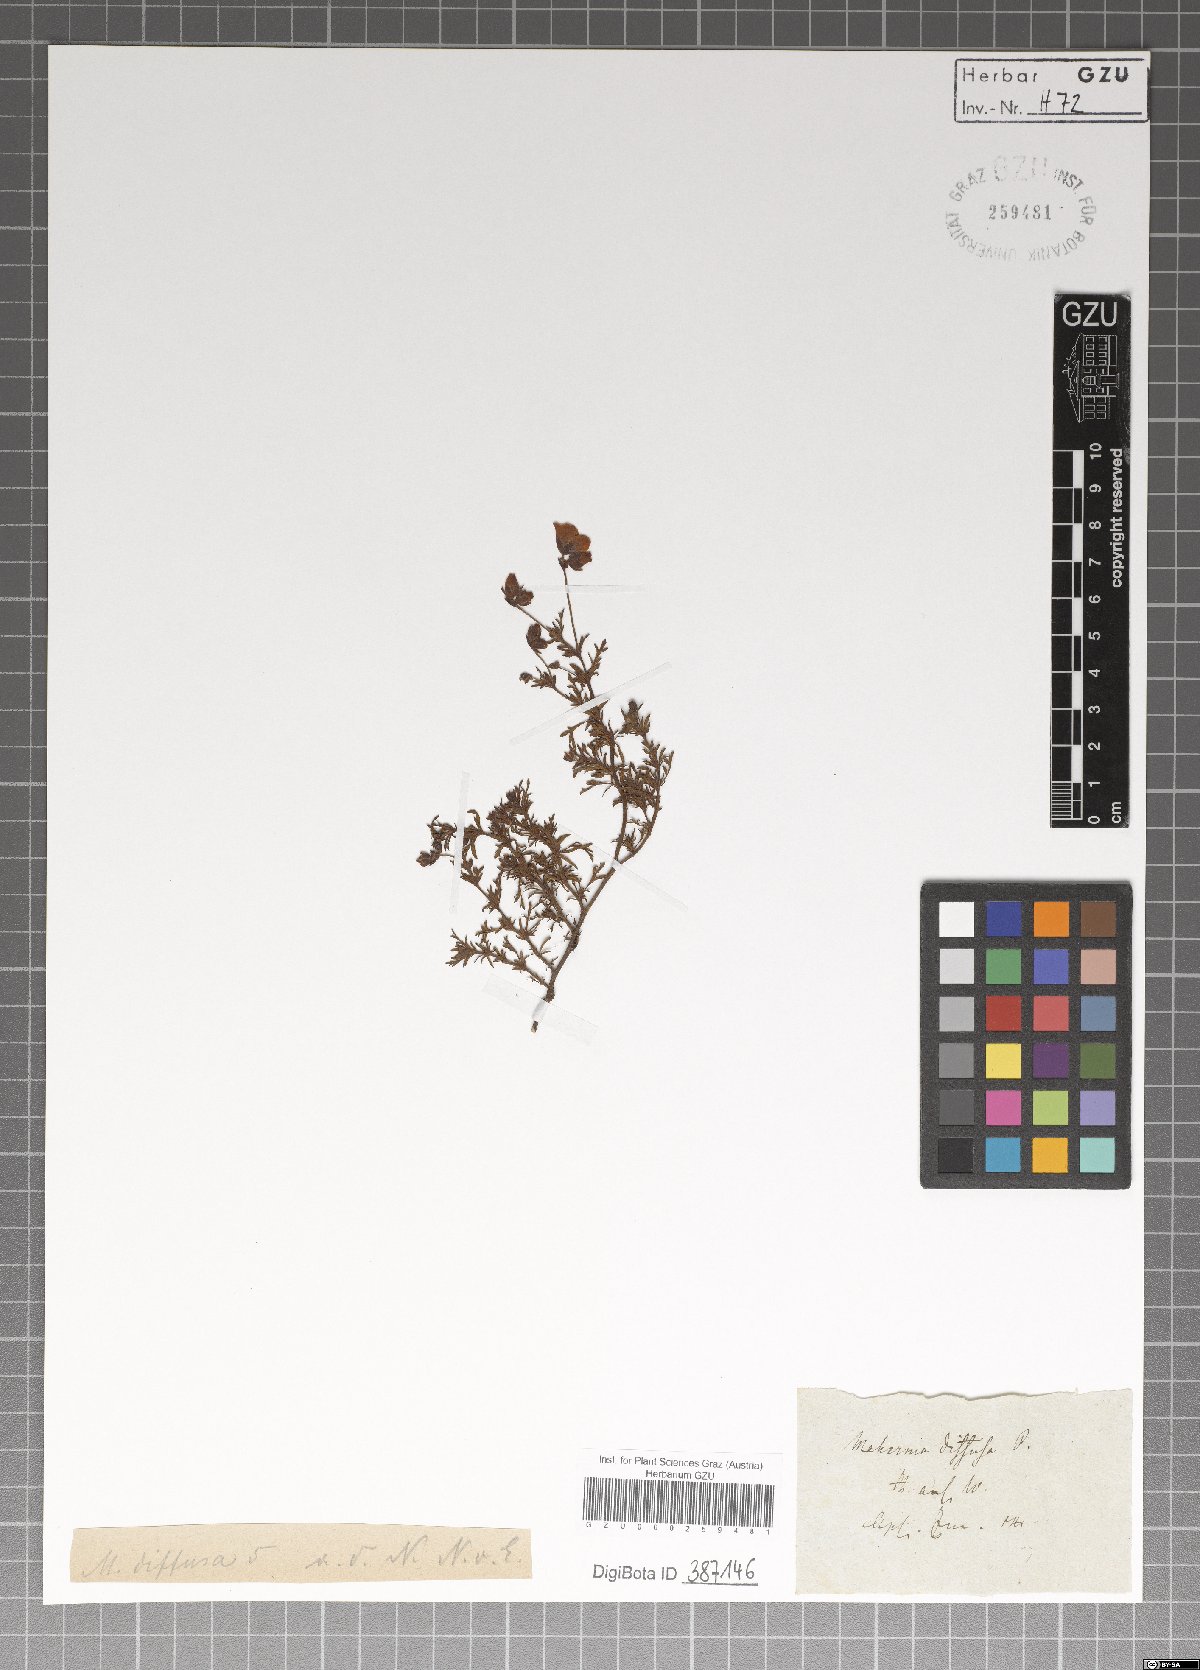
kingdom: Plantae
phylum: Tracheophyta
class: Magnoliopsida
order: Malvales
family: Malvaceae
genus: Hermannia
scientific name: Hermannia diffusa
